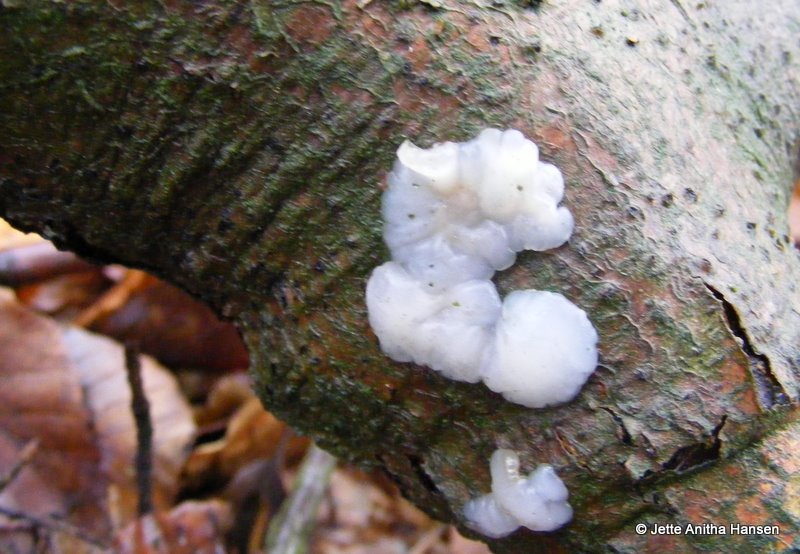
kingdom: Fungi
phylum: Basidiomycota
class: Agaricomycetes
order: Auriculariales
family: Auriculariaceae
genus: Exidia
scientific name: Exidia thuretiana
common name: hvidlig bævretop
